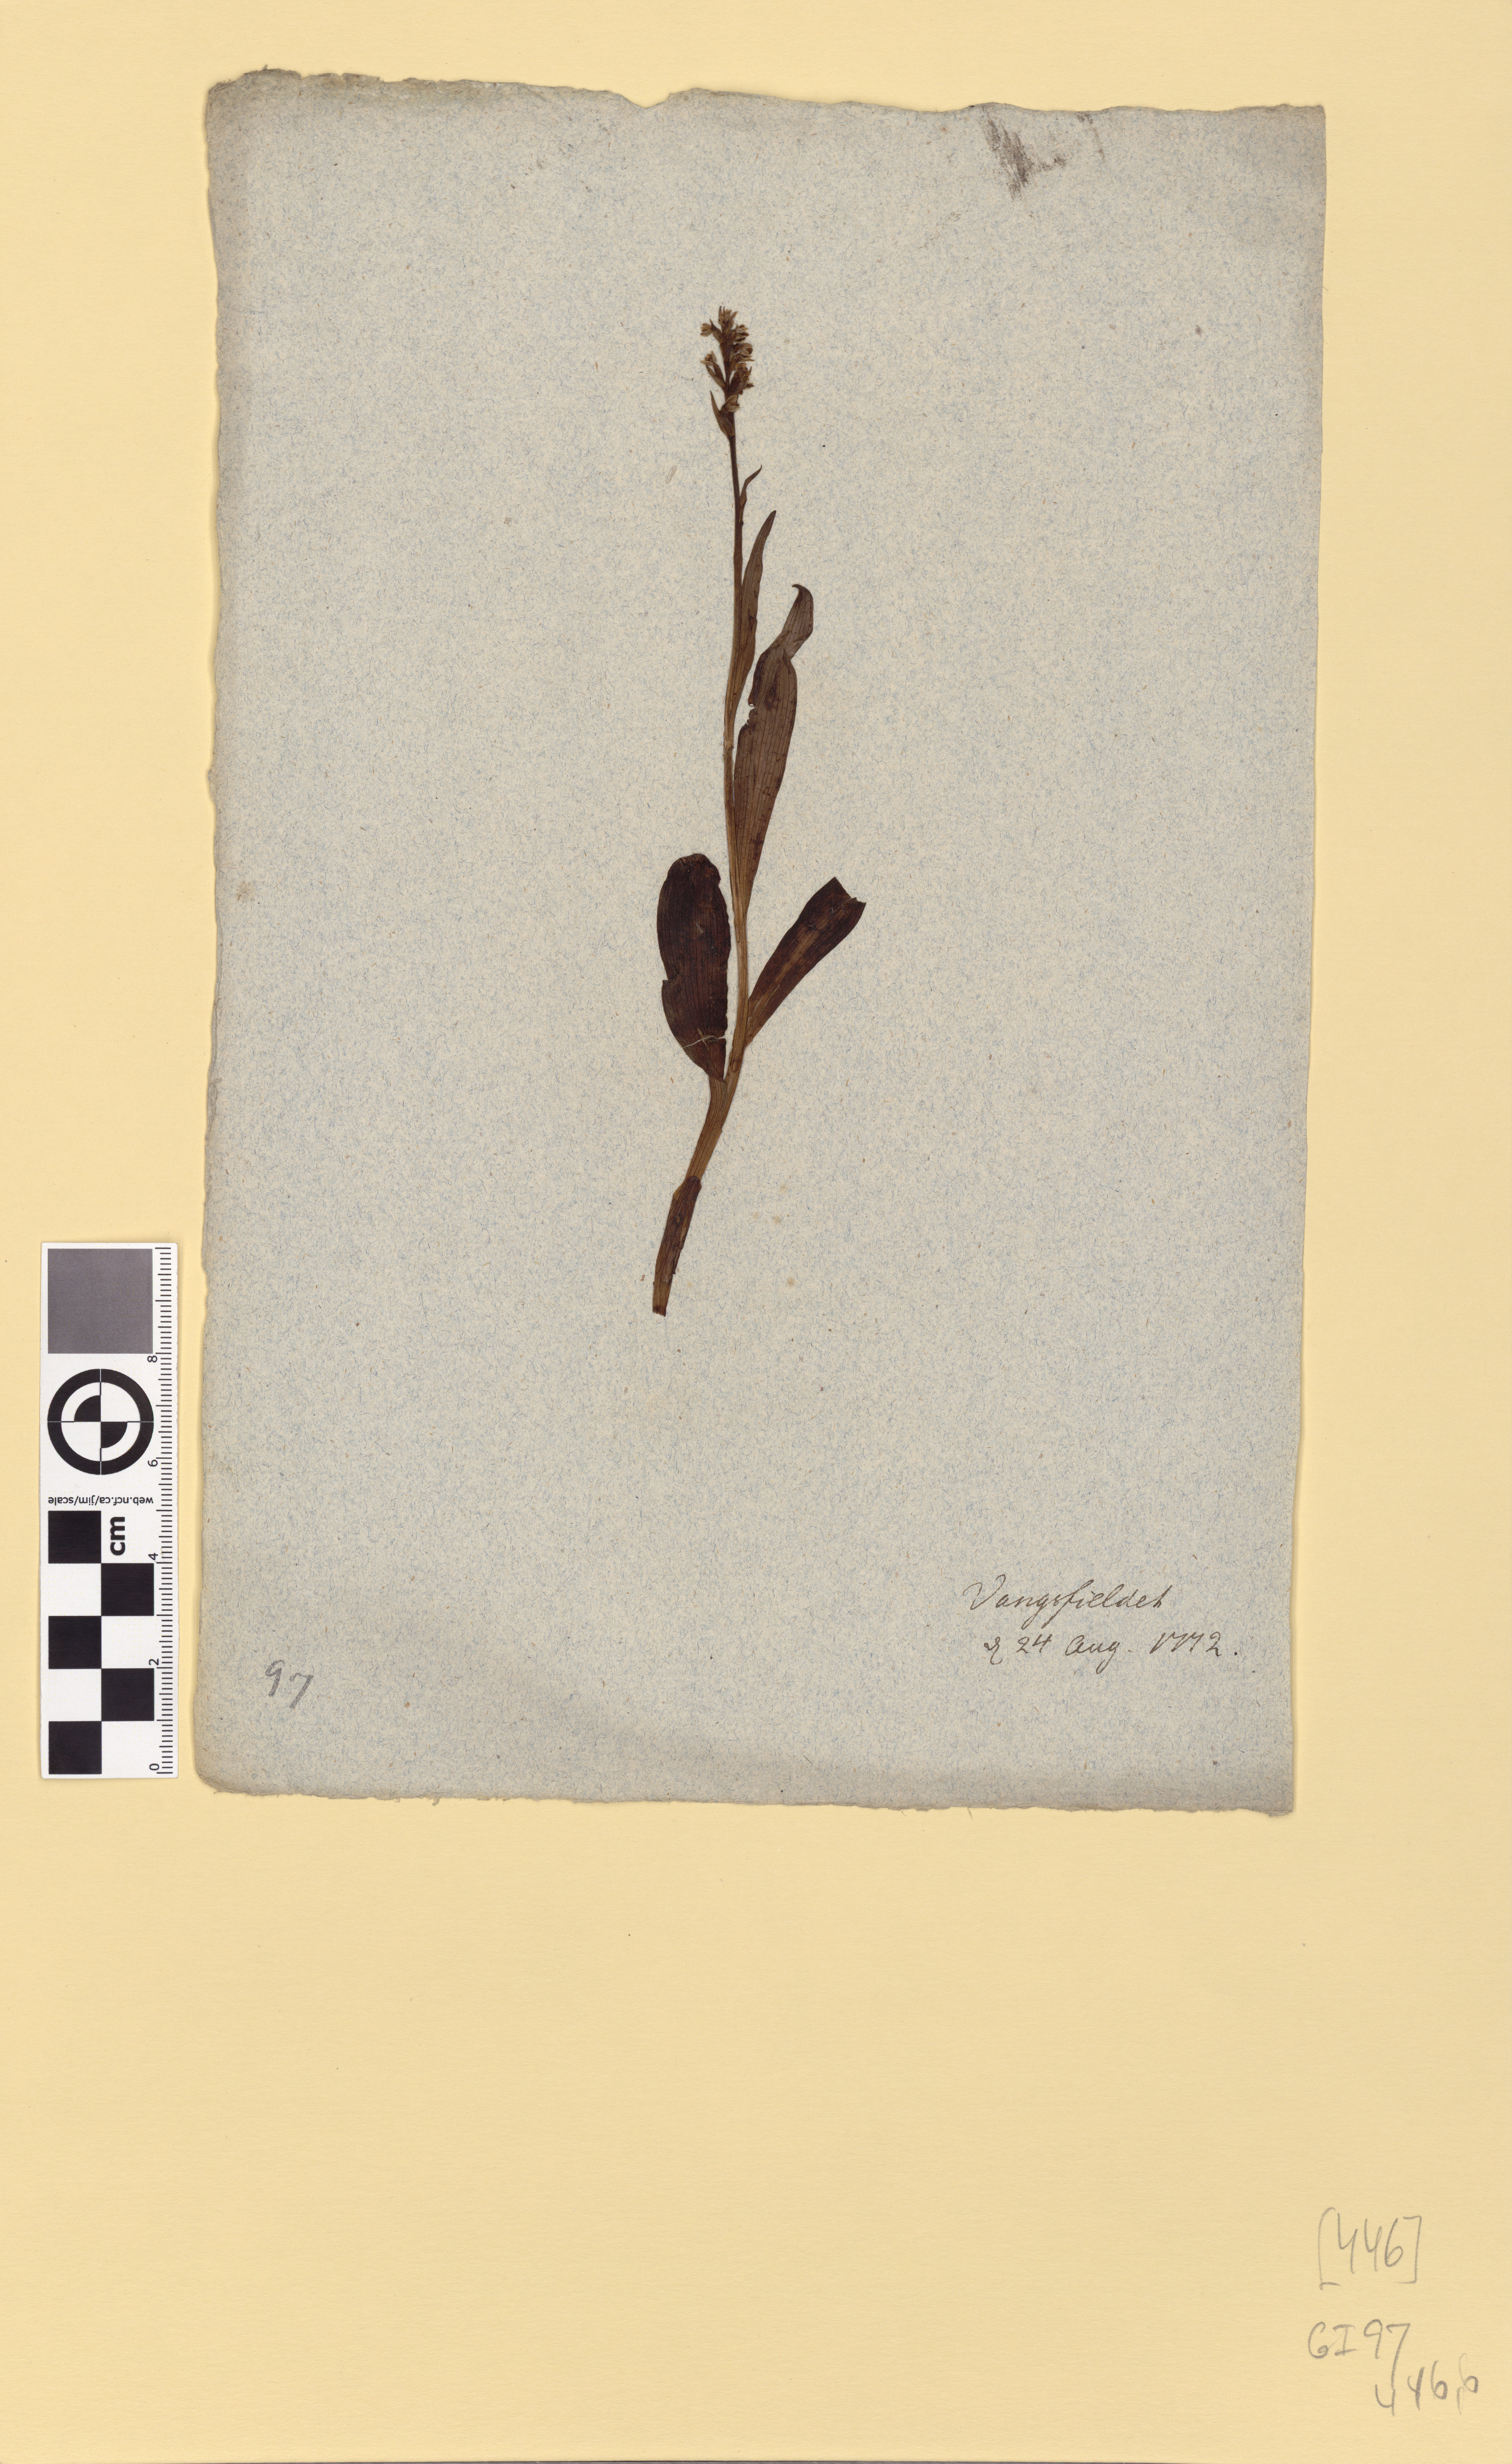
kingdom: Plantae
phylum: Tracheophyta
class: Liliopsida
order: Asparagales
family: Orchidaceae
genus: Pseudorchis
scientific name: Pseudorchis albida
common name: Small-white orchid
